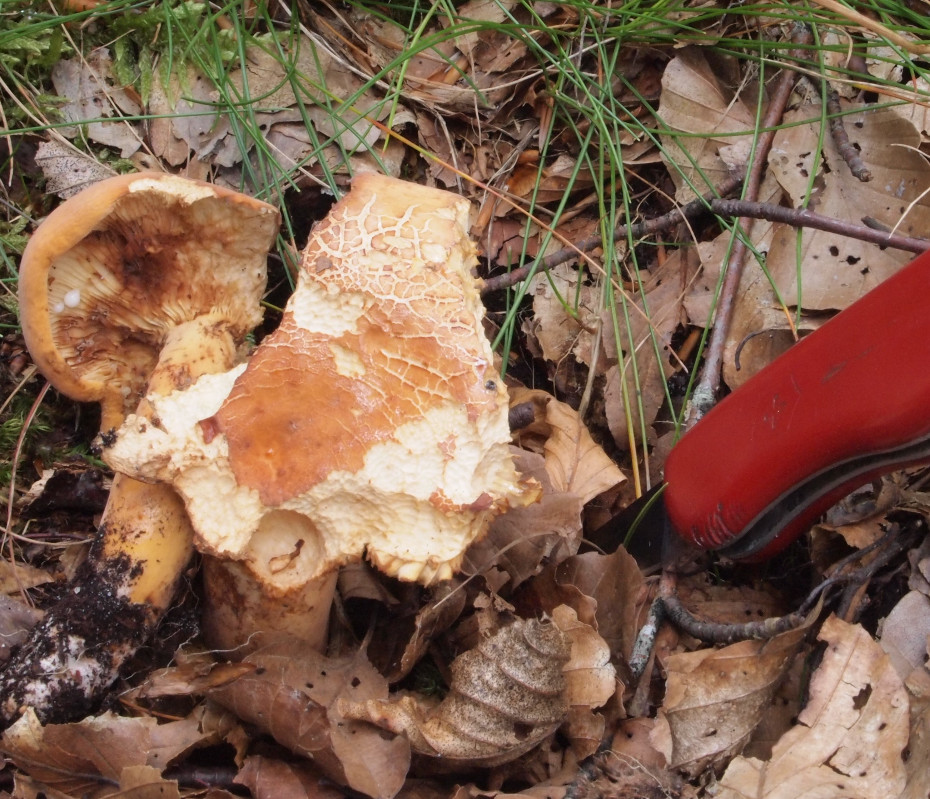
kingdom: Fungi
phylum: Basidiomycota
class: Agaricomycetes
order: Russulales
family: Russulaceae
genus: Lactifluus
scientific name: Lactifluus volemus
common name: spiselig mælkehat
